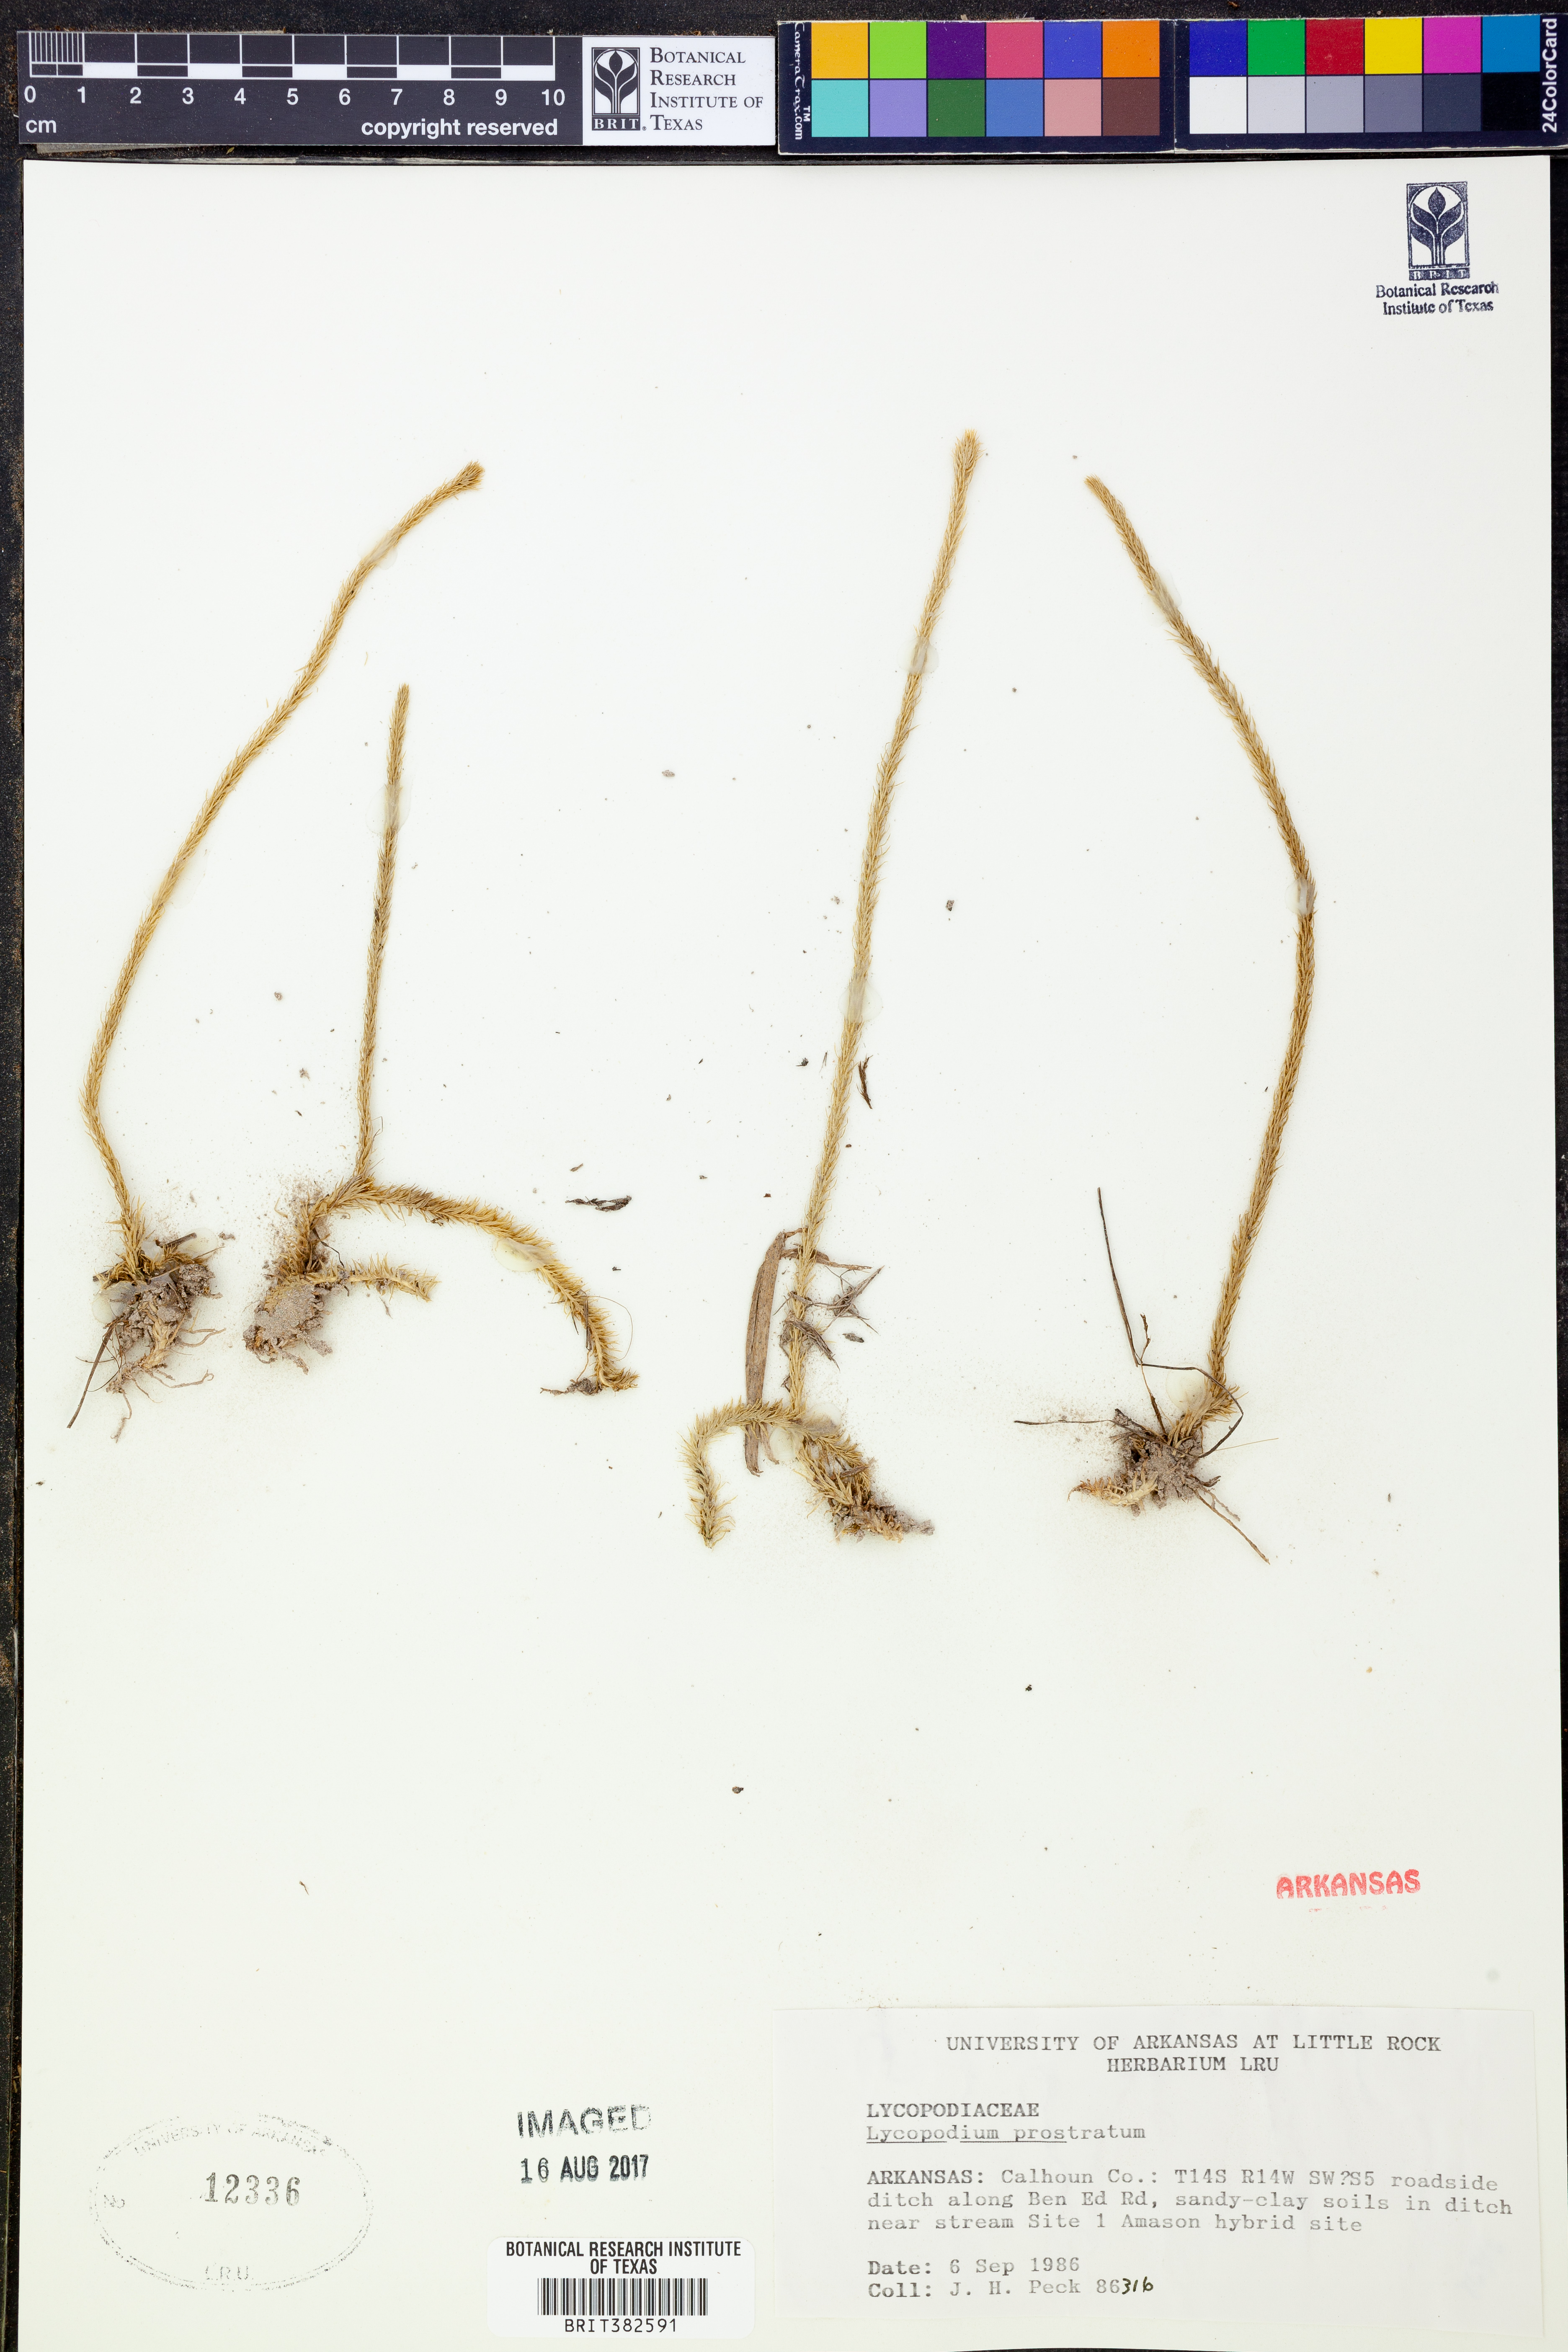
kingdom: Plantae
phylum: Tracheophyta
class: Lycopodiopsida
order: Lycopodiales
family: Lycopodiaceae
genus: Lycopodiella
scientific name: Lycopodiella prostrata
